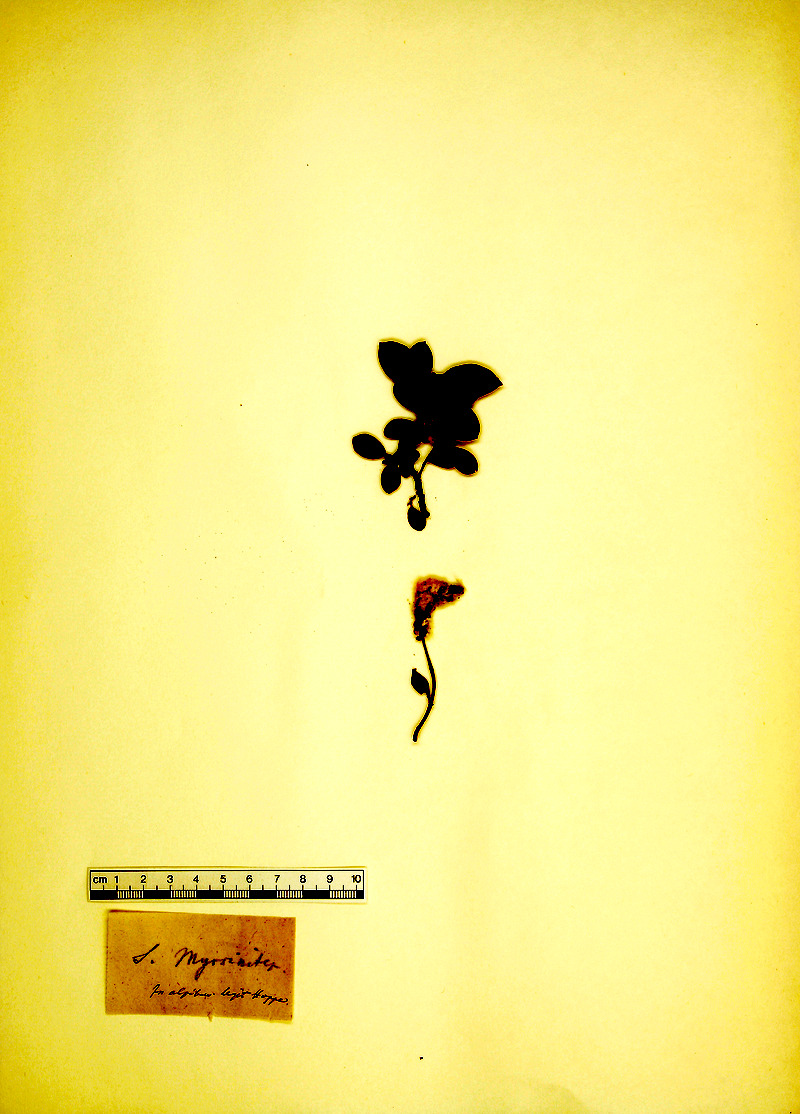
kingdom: Plantae
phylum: Tracheophyta
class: Magnoliopsida
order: Malpighiales
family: Salicaceae
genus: Salix
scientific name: Salix myrsinifolia
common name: Dark-leaved willow
